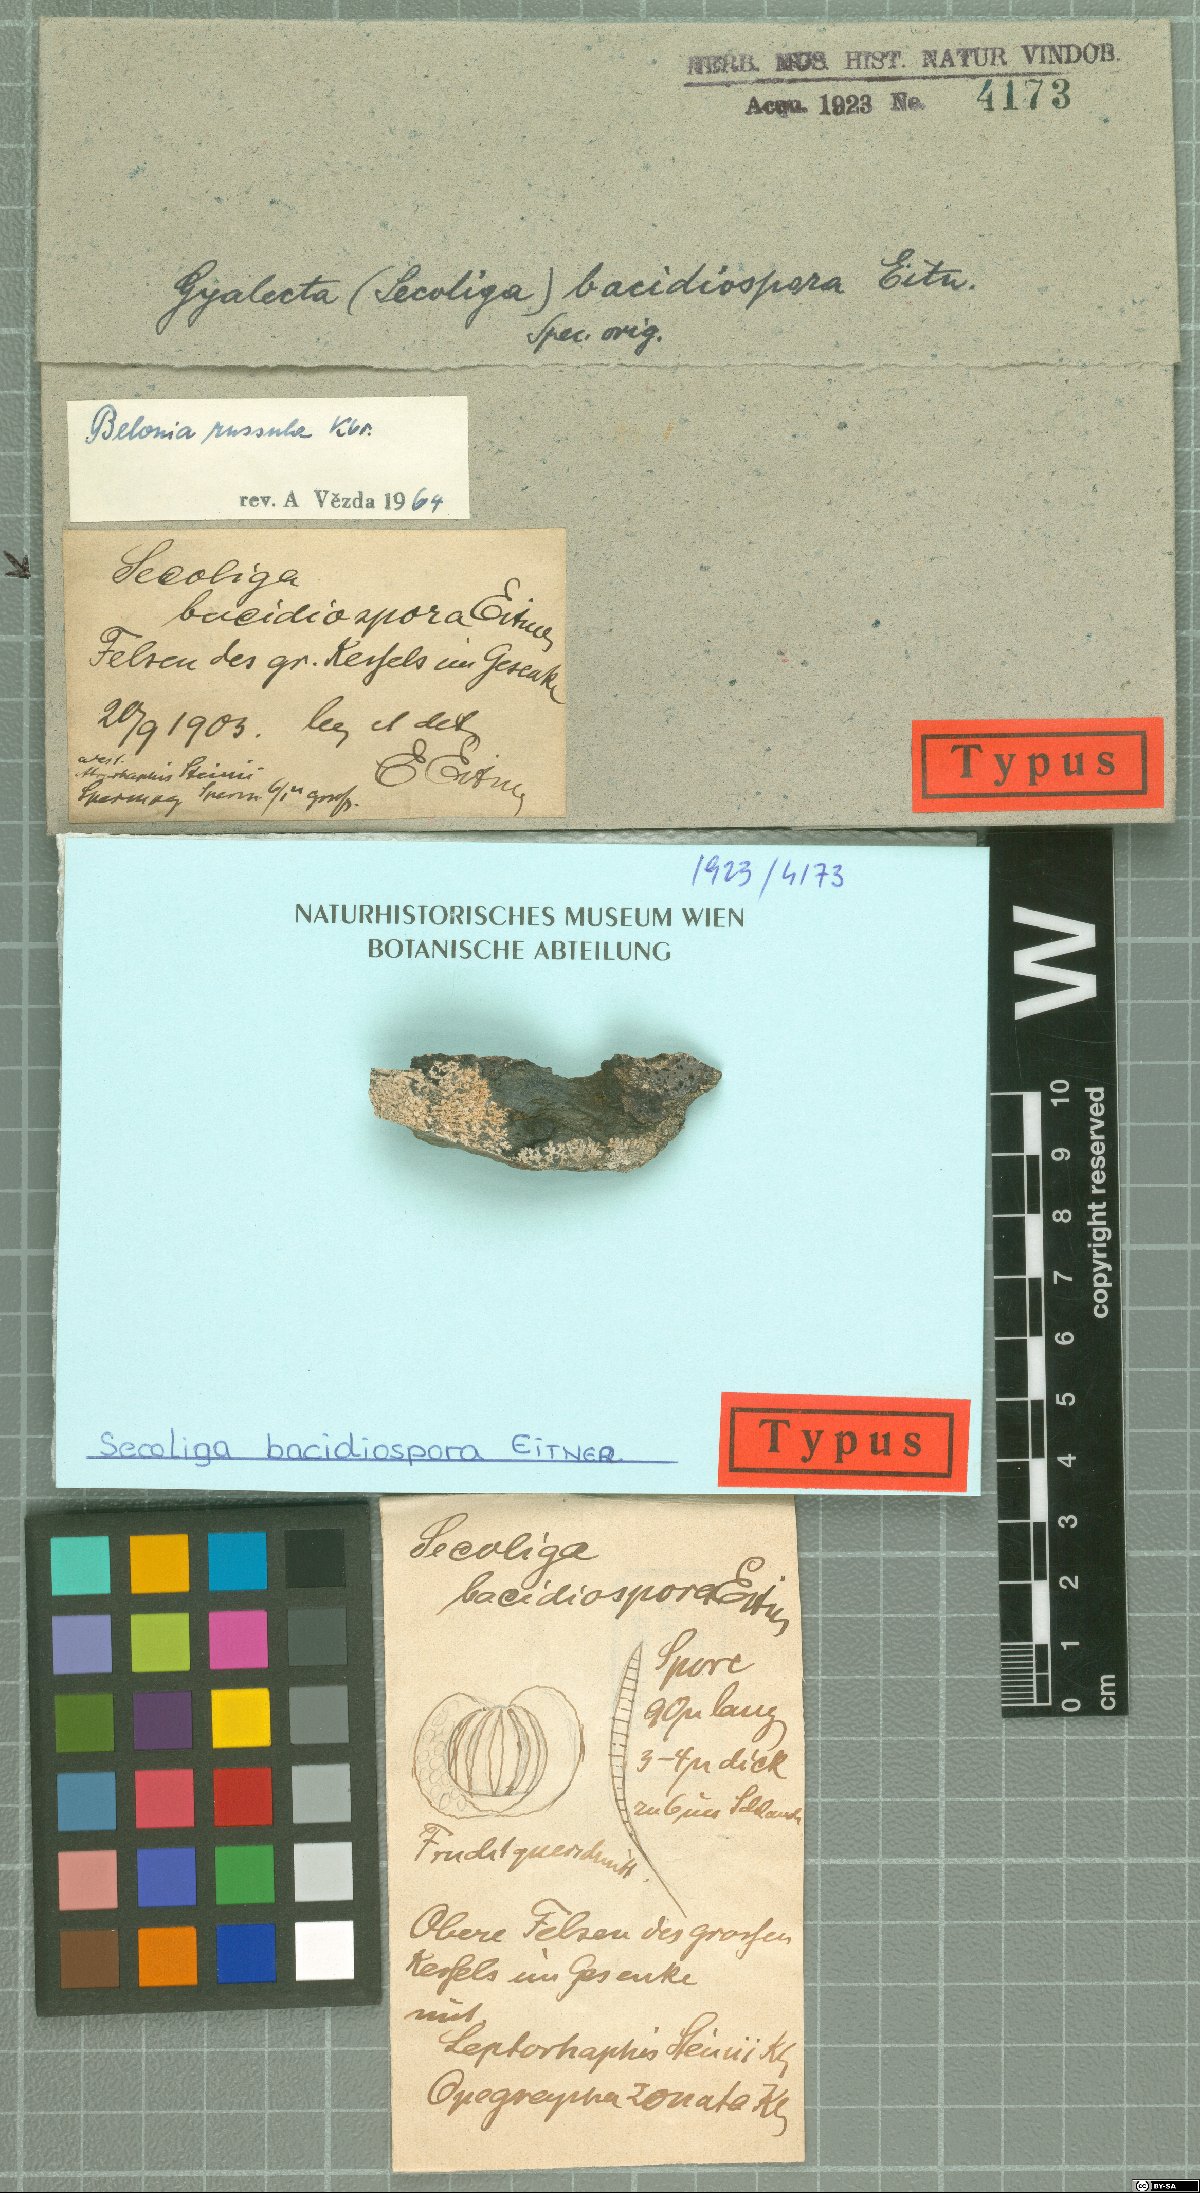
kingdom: Fungi
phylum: Ascomycota
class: Lecanoromycetes
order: Gyalectales
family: Gyalectaceae
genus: Secoliga
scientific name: Secoliga
